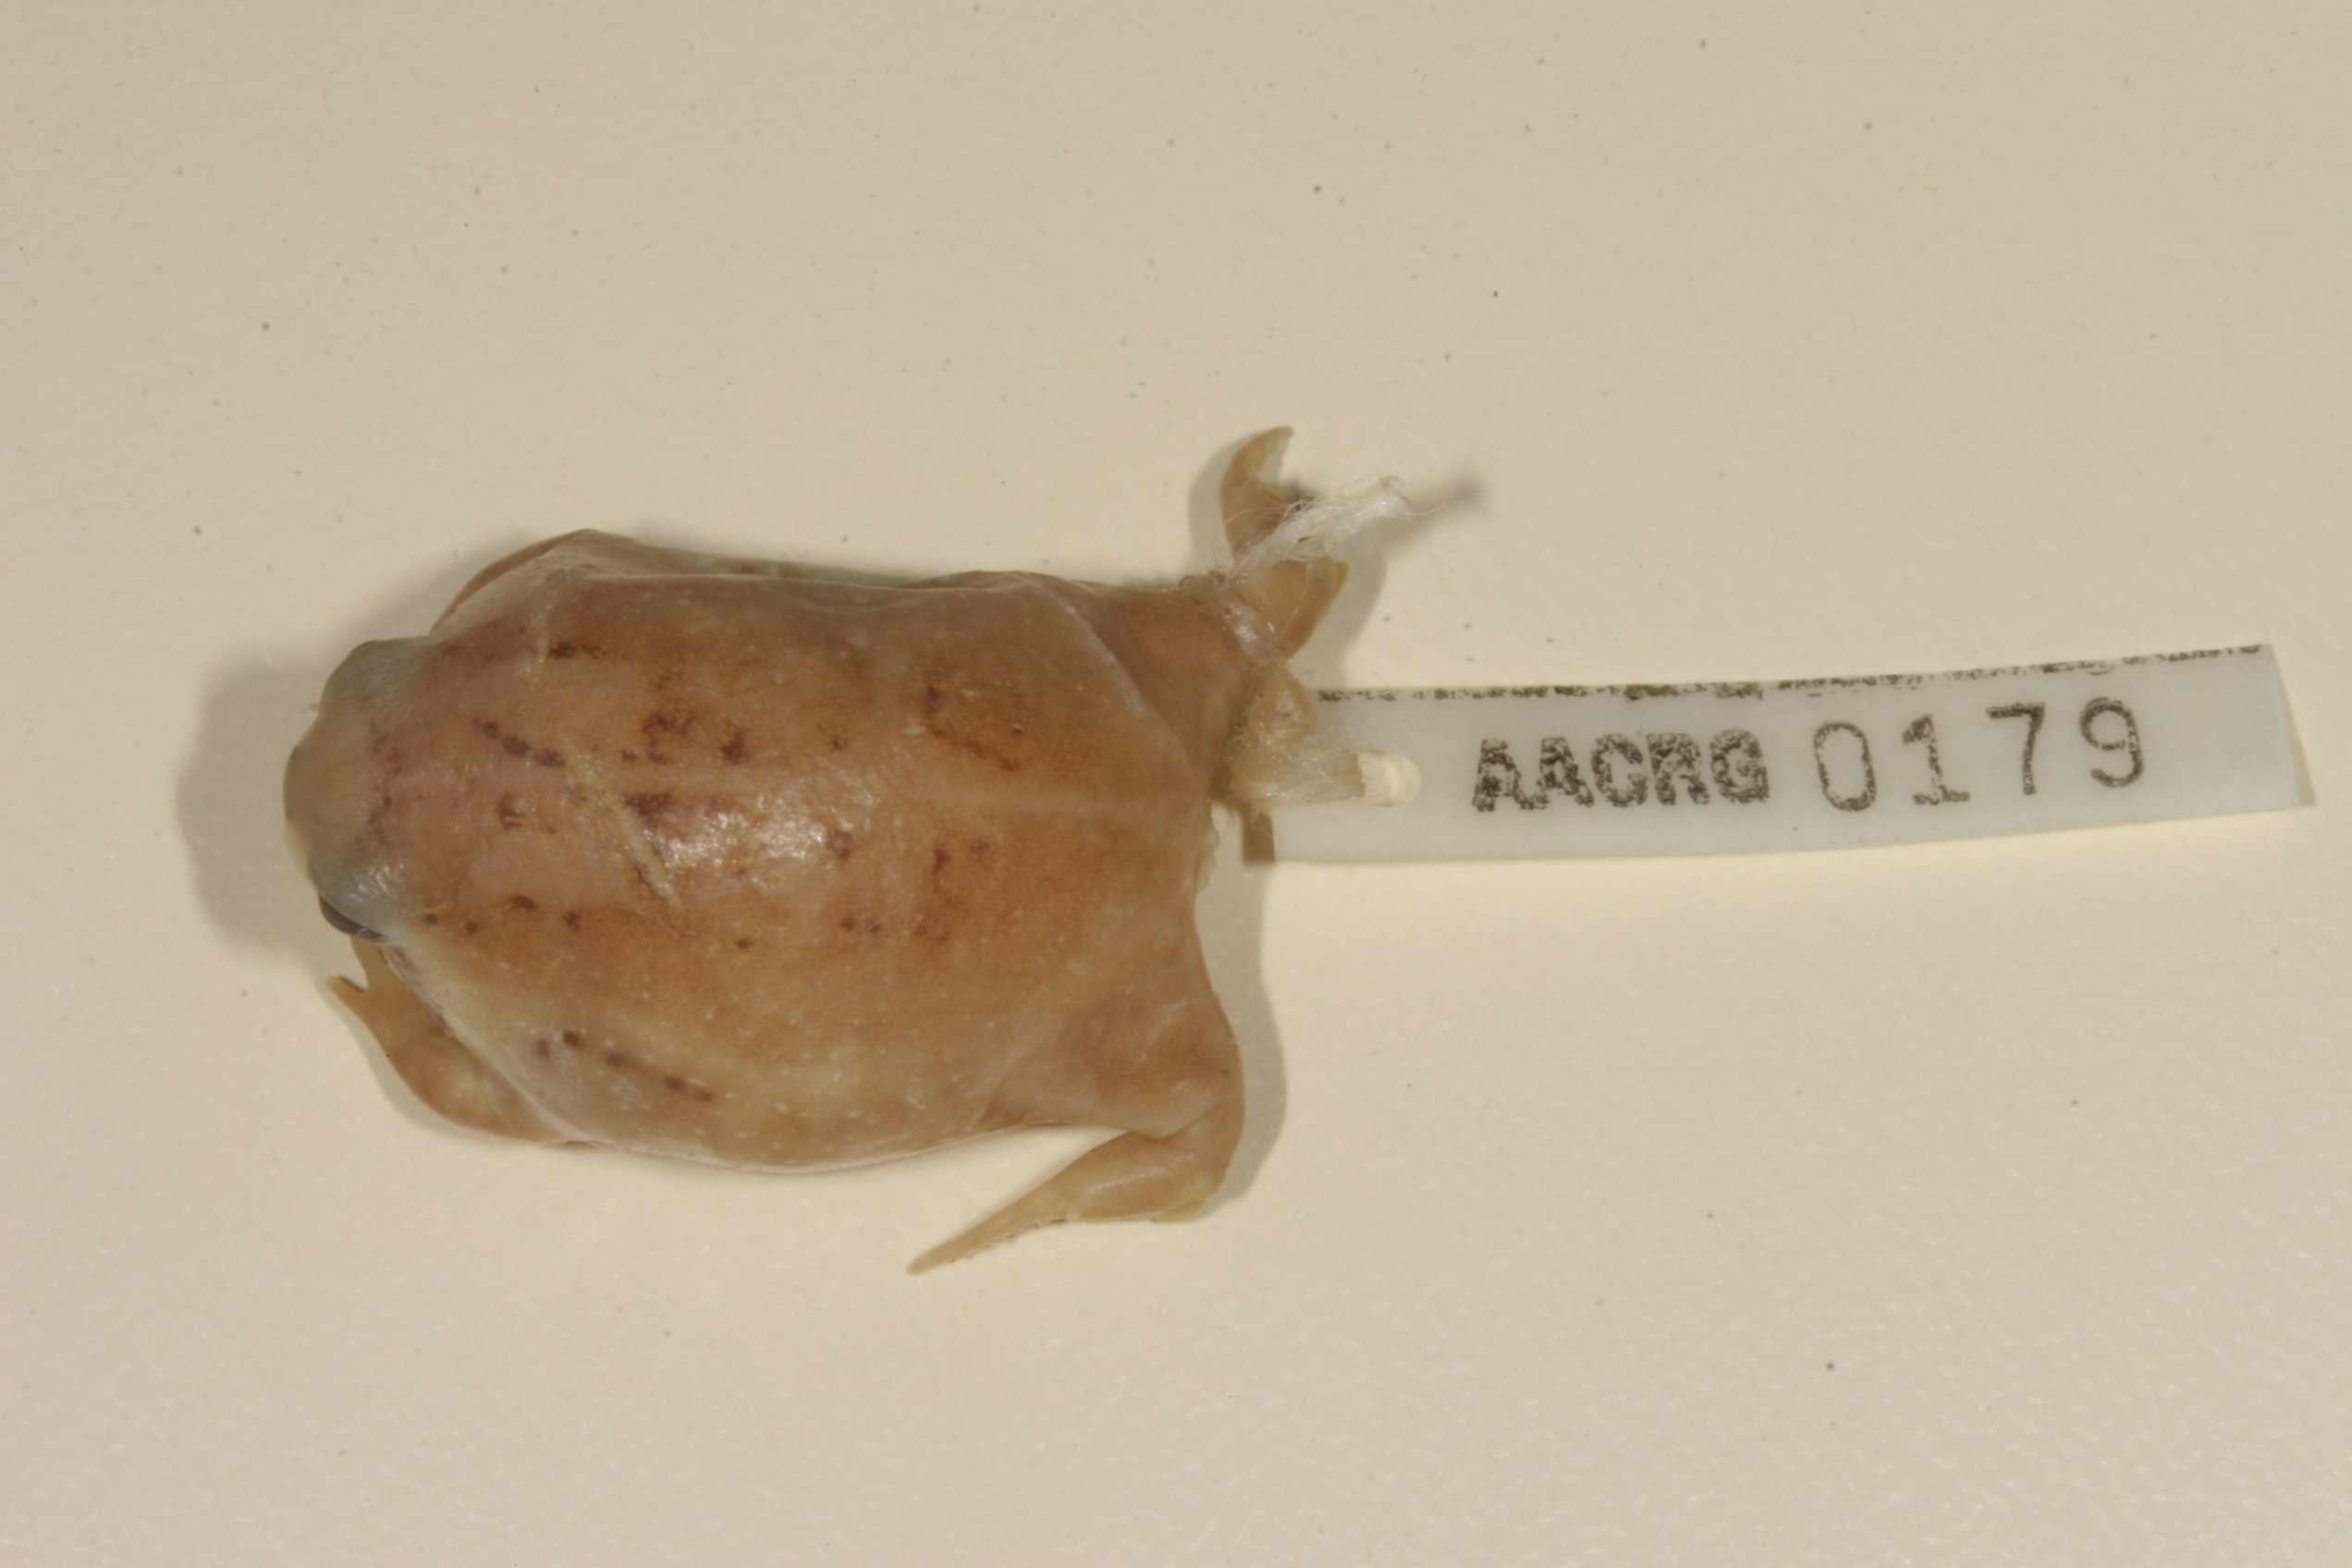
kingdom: Animalia
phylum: Chordata
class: Amphibia
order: Anura
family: Brevicipitidae
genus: Breviceps
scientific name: Breviceps adspersus
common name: Common rain frog
